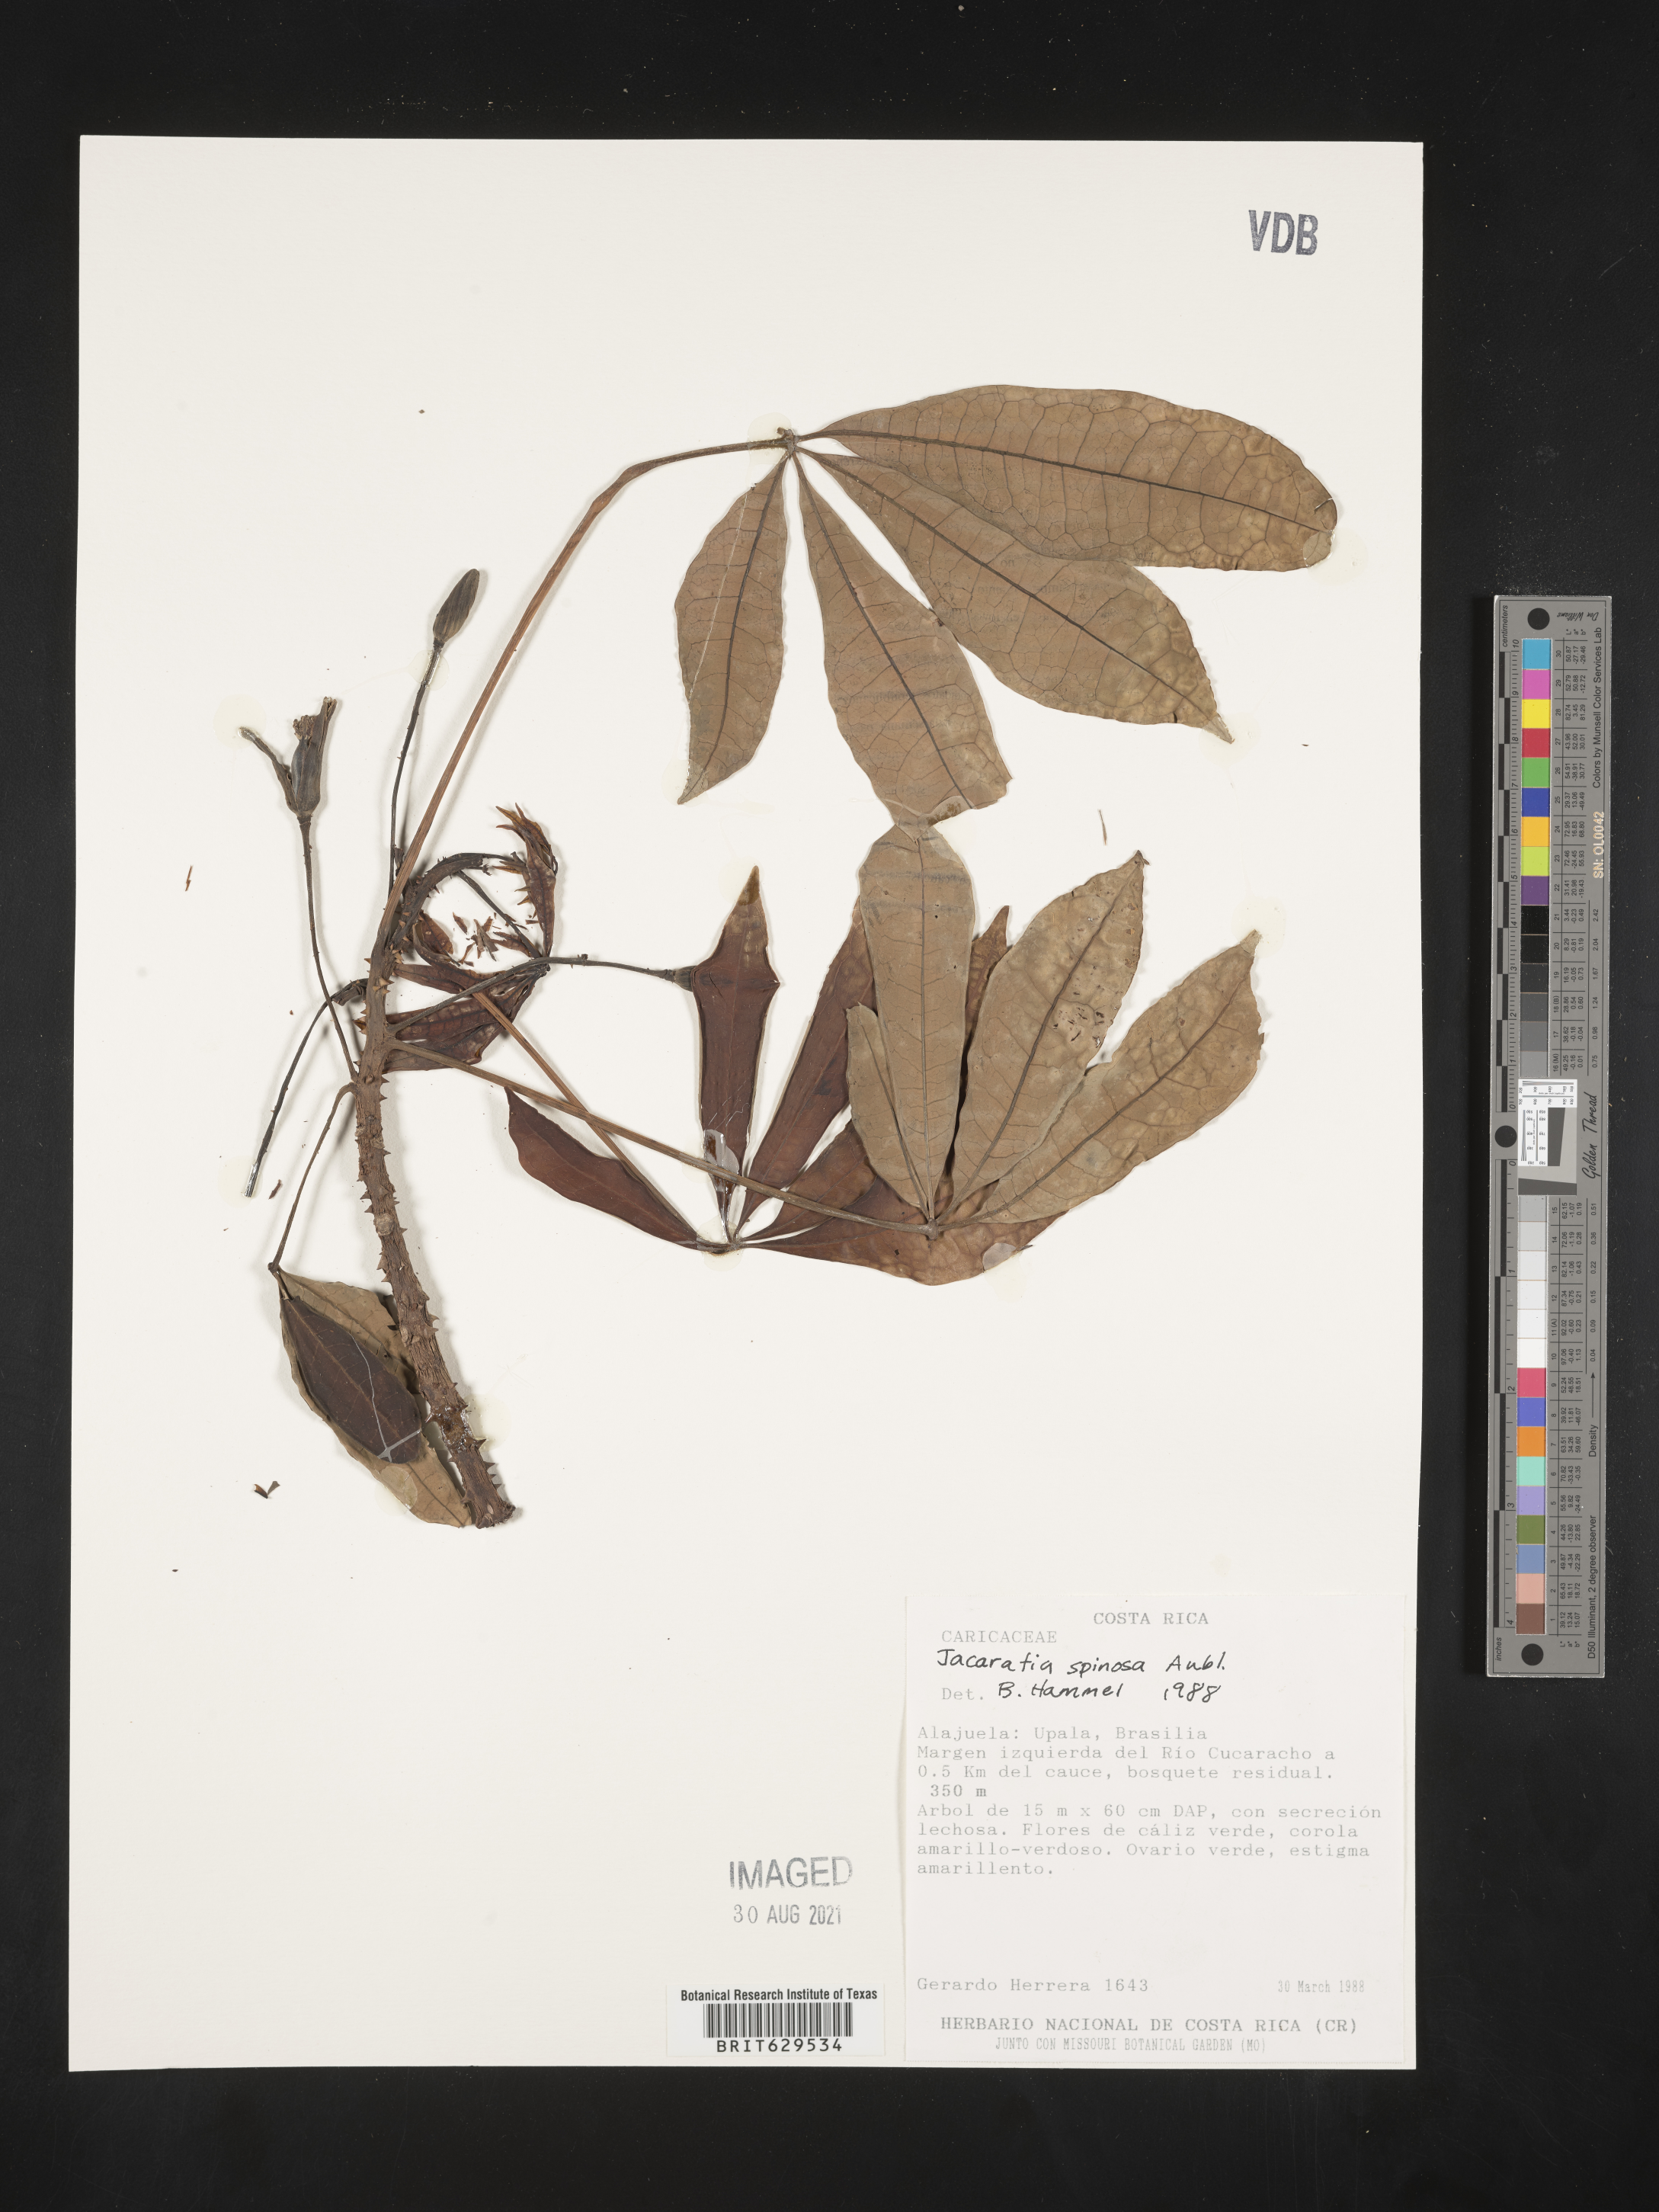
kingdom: Plantae
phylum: Tracheophyta
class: Magnoliopsida
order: Brassicales
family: Caricaceae
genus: Jacaratia
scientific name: Jacaratia spinosa
